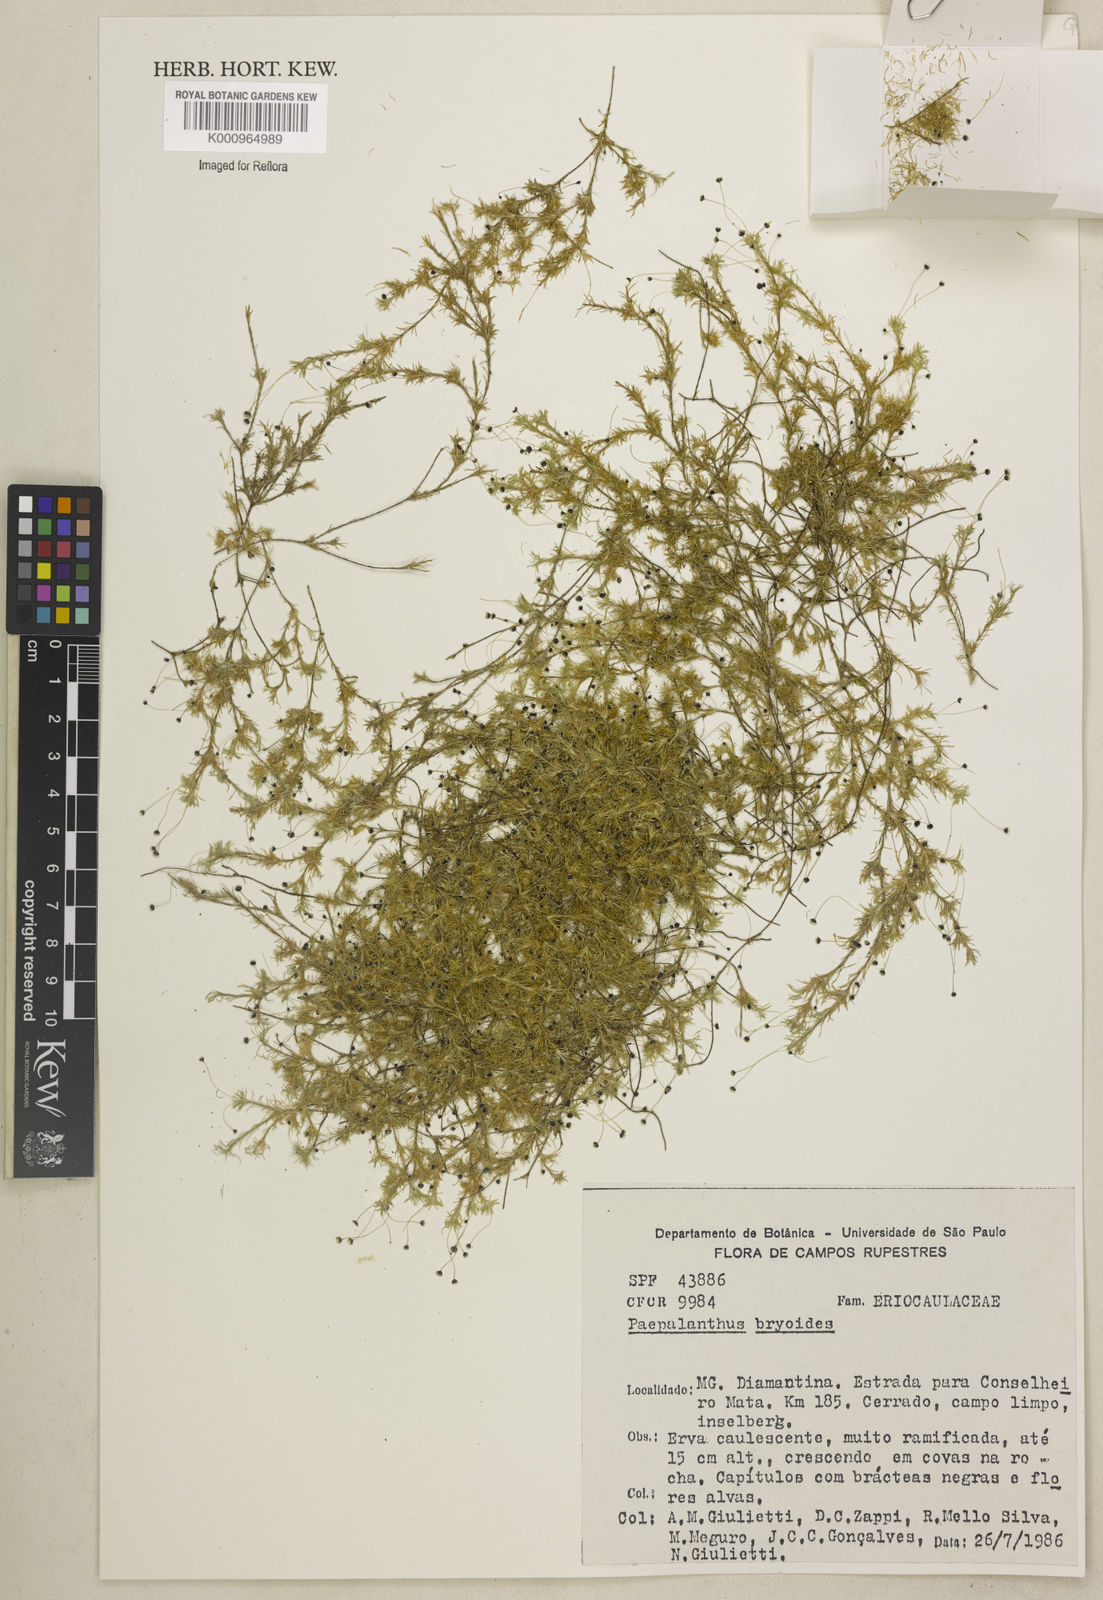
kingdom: Plantae
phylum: Tracheophyta
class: Liliopsida
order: Poales
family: Eriocaulaceae
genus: Paepalanthus
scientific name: Paepalanthus bryoides
